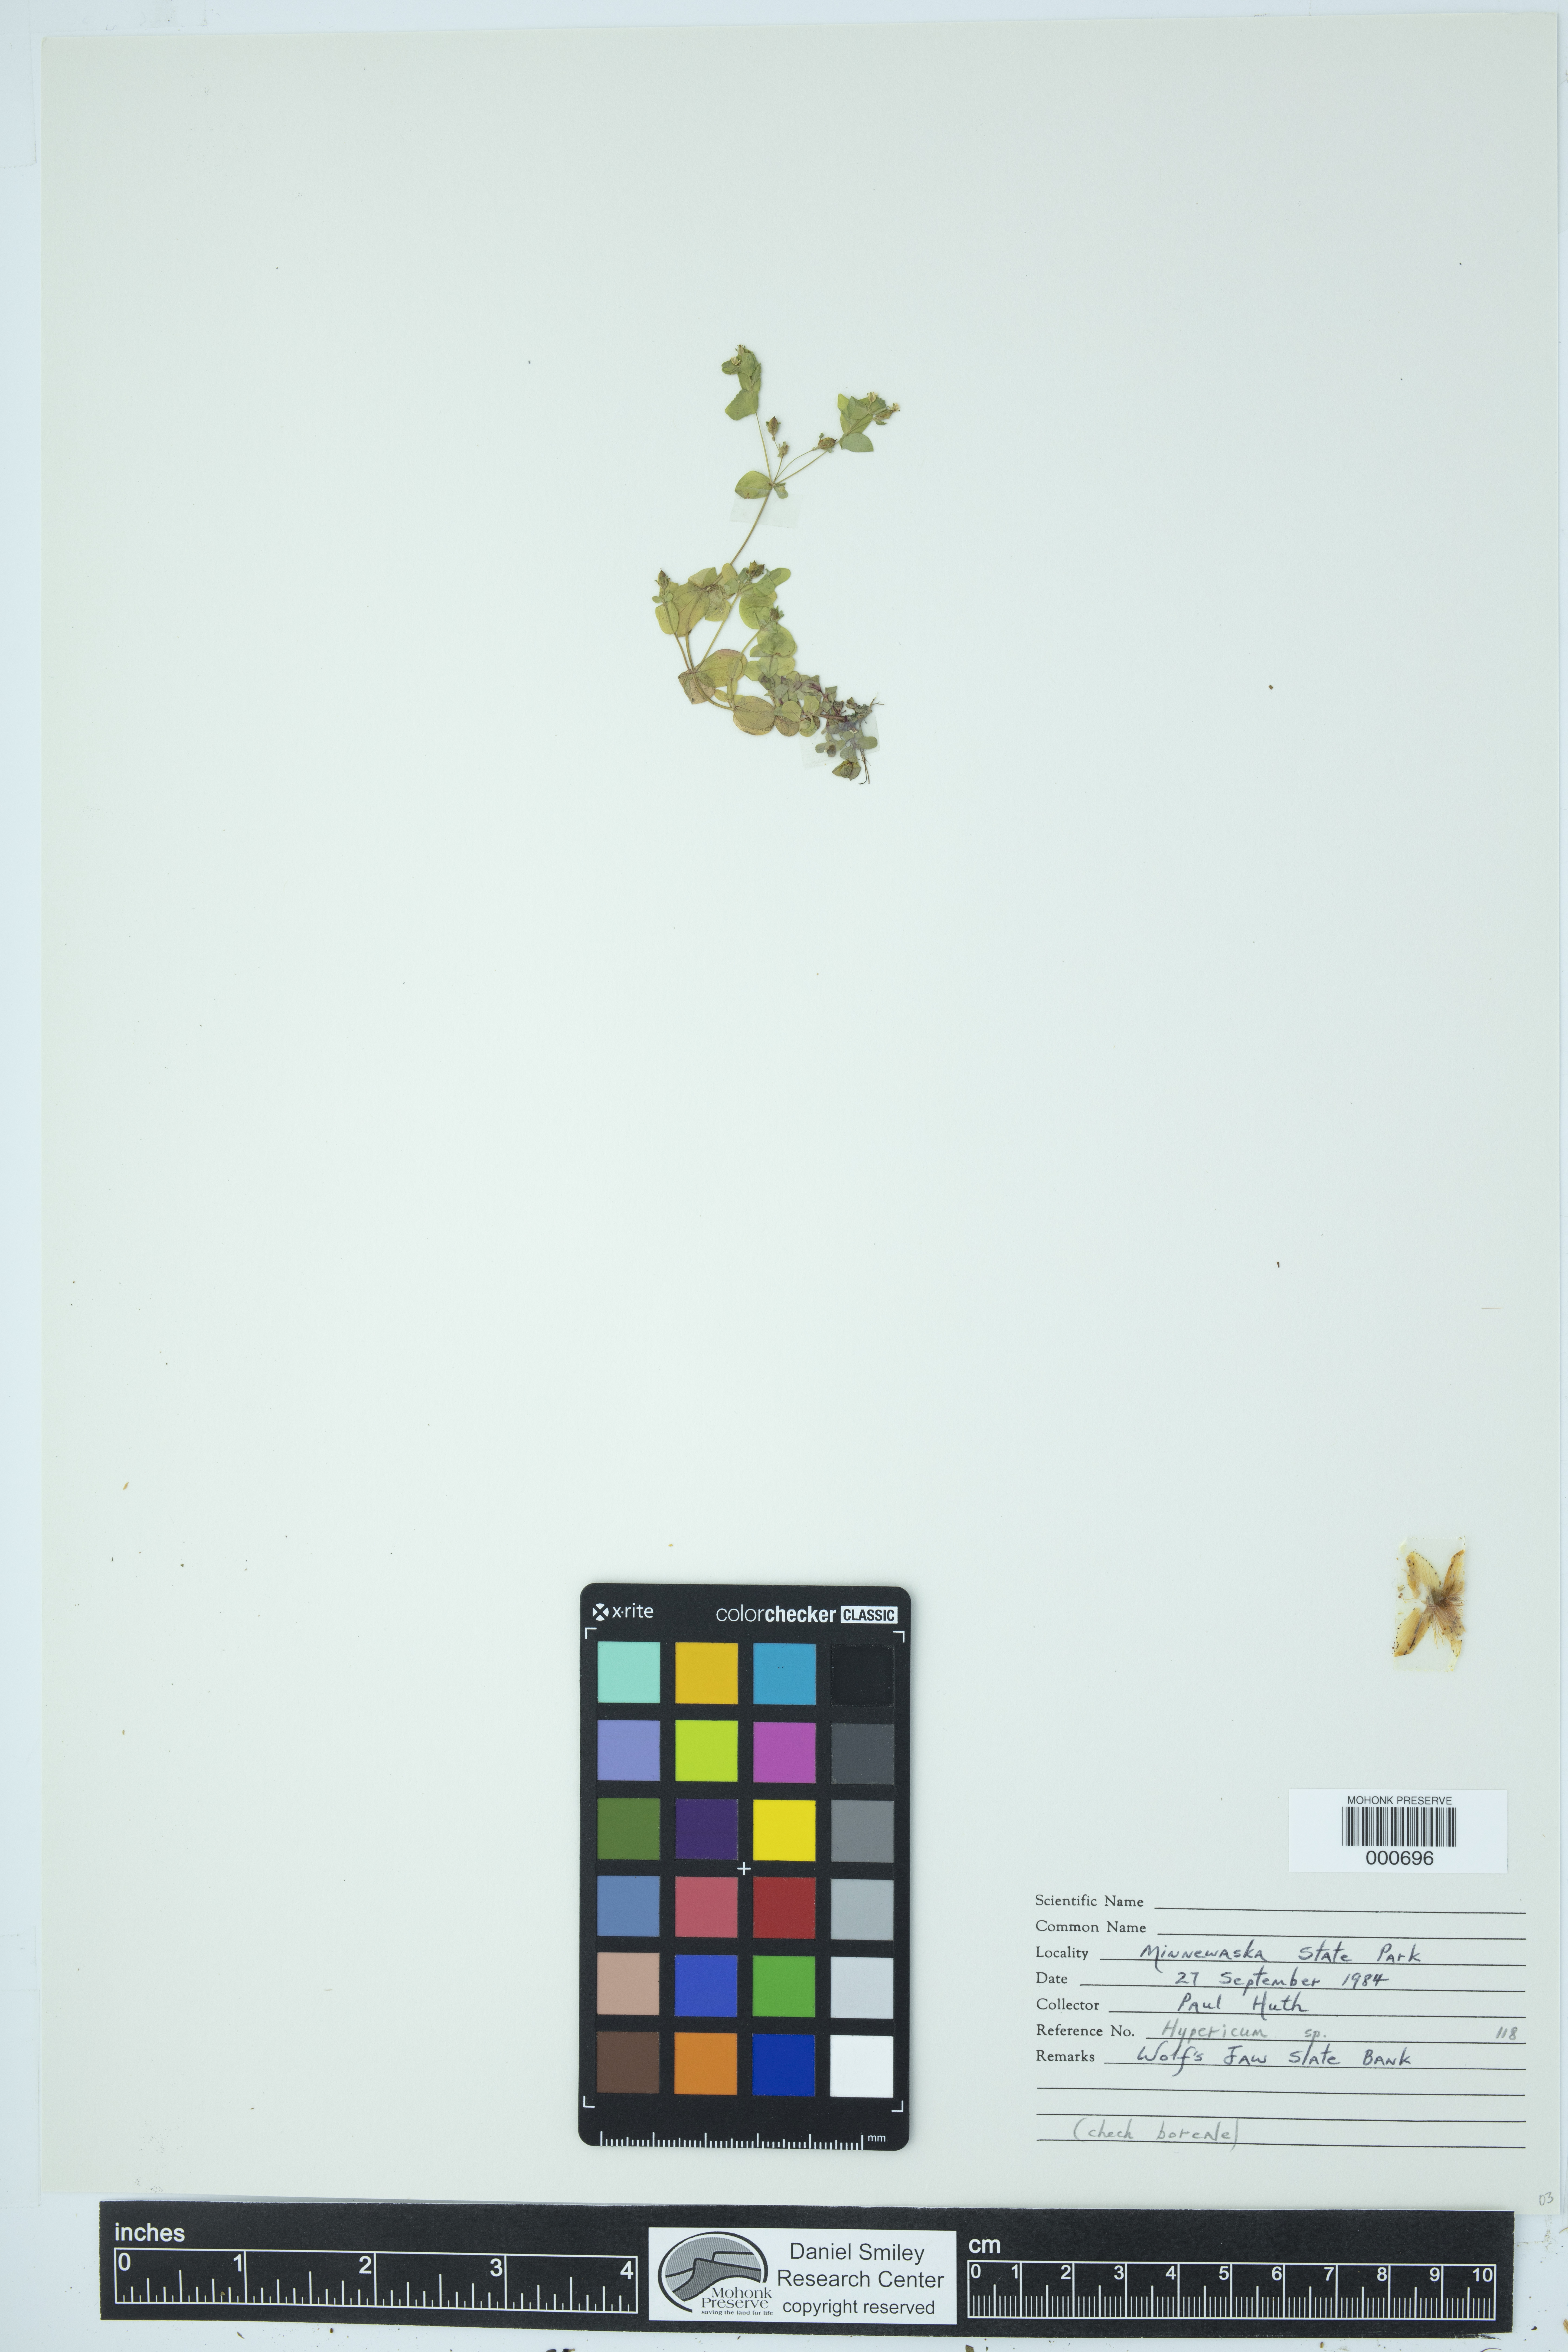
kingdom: Plantae
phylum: Tracheophyta
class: Magnoliopsida
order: Malpighiales
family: Hypericaceae
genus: Hypericum
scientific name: Hypericum
